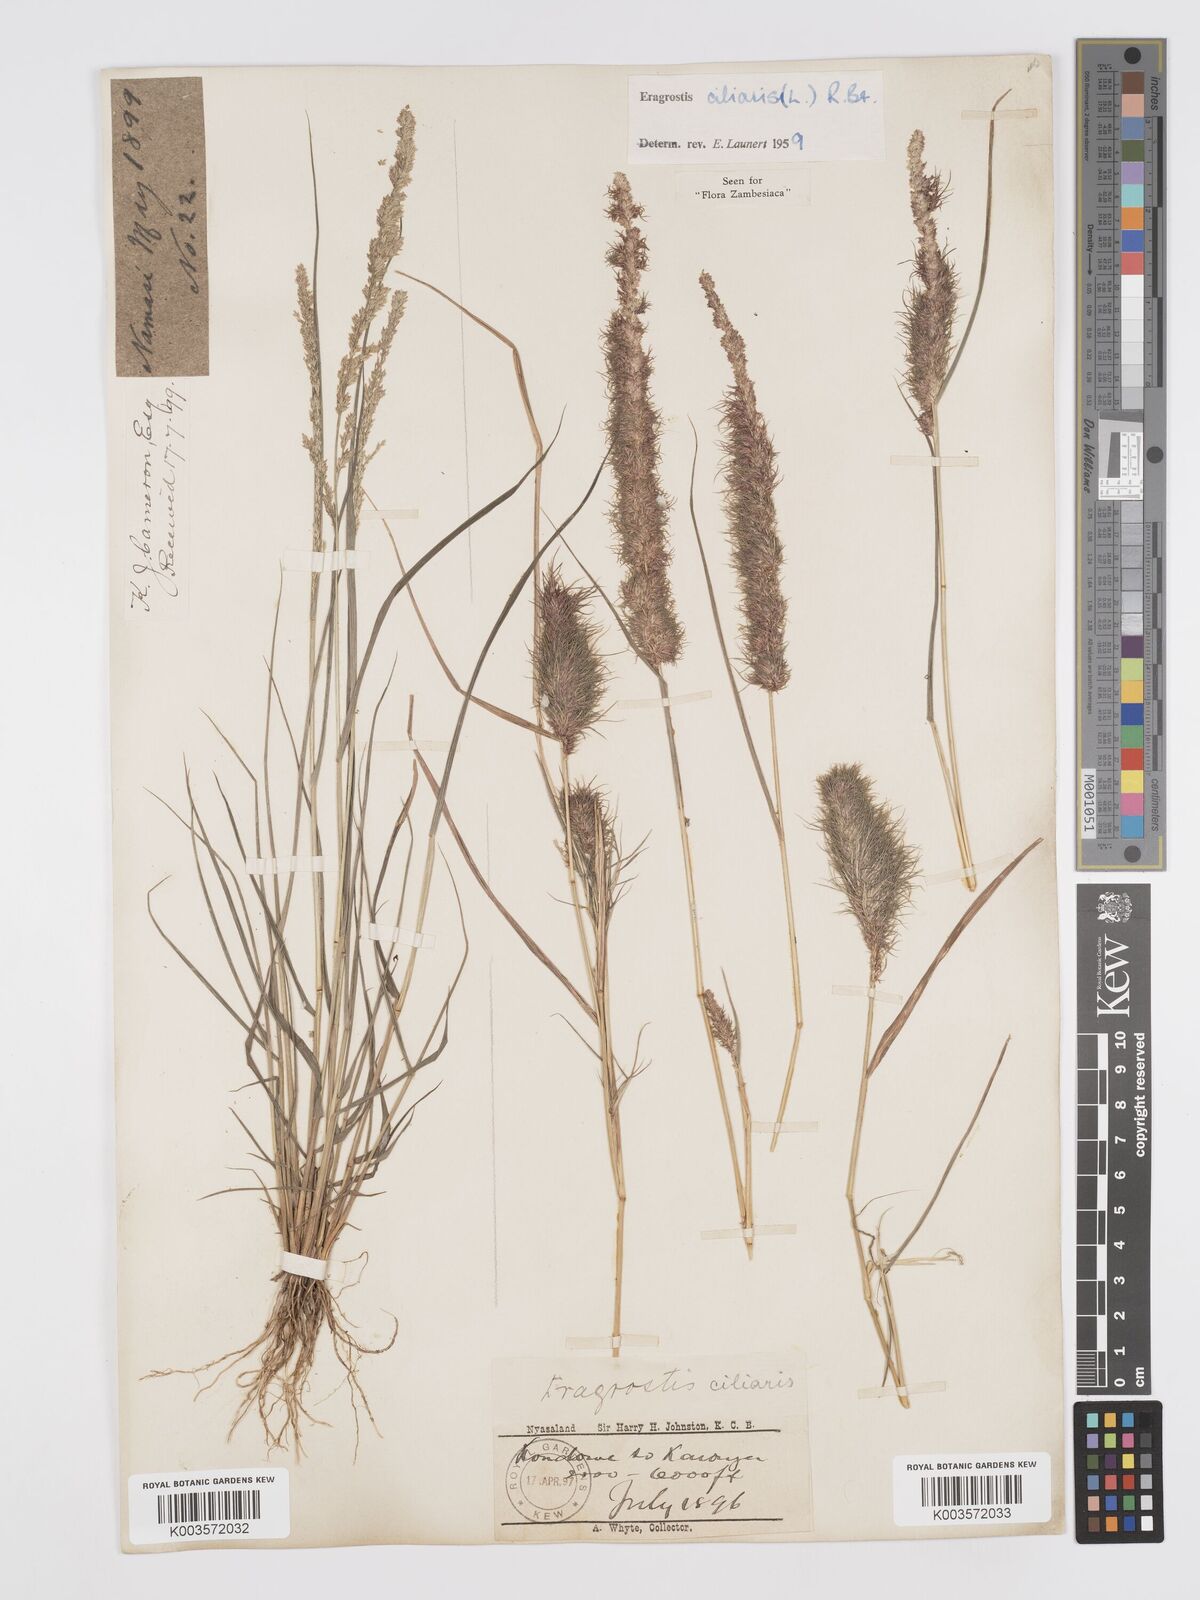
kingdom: Plantae
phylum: Tracheophyta
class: Liliopsida
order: Poales
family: Poaceae
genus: Eragrostis
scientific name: Eragrostis ciliaris
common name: Gophertail lovegrass
